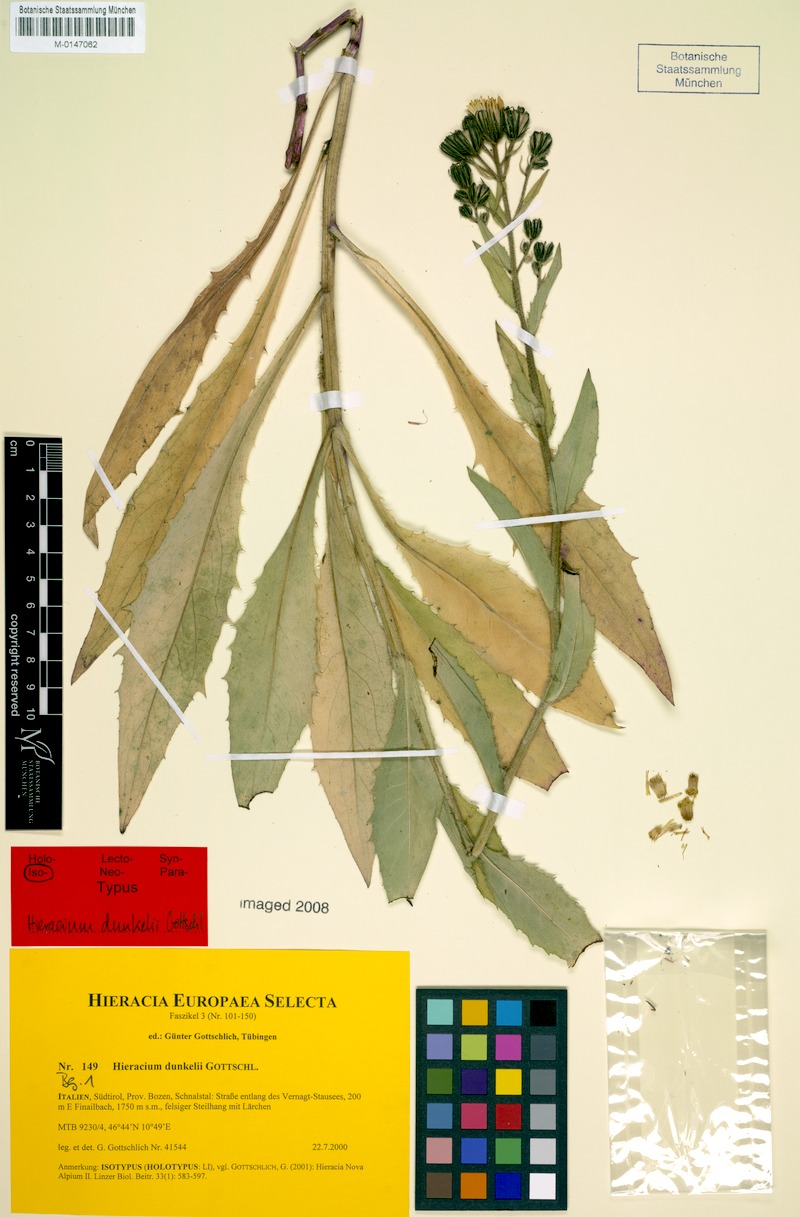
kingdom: Plantae
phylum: Tracheophyta
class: Magnoliopsida
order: Asterales
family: Asteraceae
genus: Hieracium
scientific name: Hieracium dunkelii
